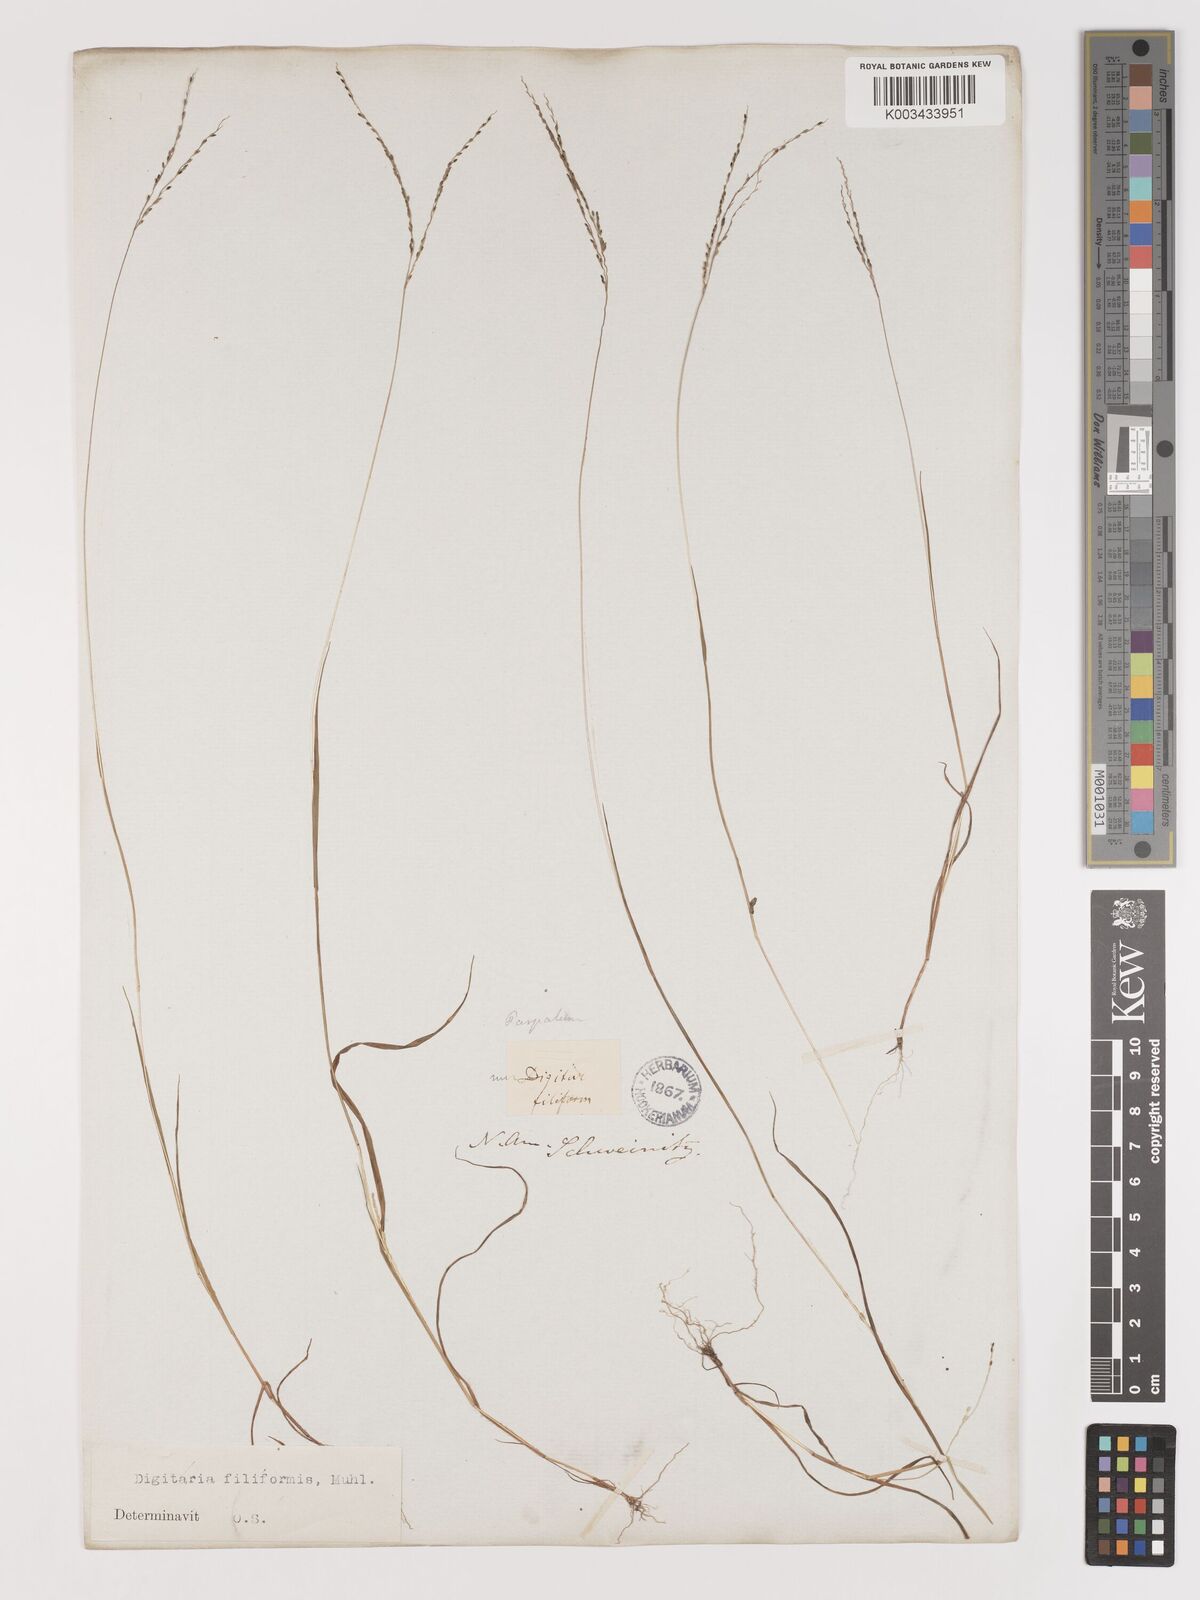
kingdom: Plantae
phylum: Tracheophyta
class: Liliopsida
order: Poales
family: Poaceae
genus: Digitaria
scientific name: Digitaria filiformis
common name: Slender crabgrass
